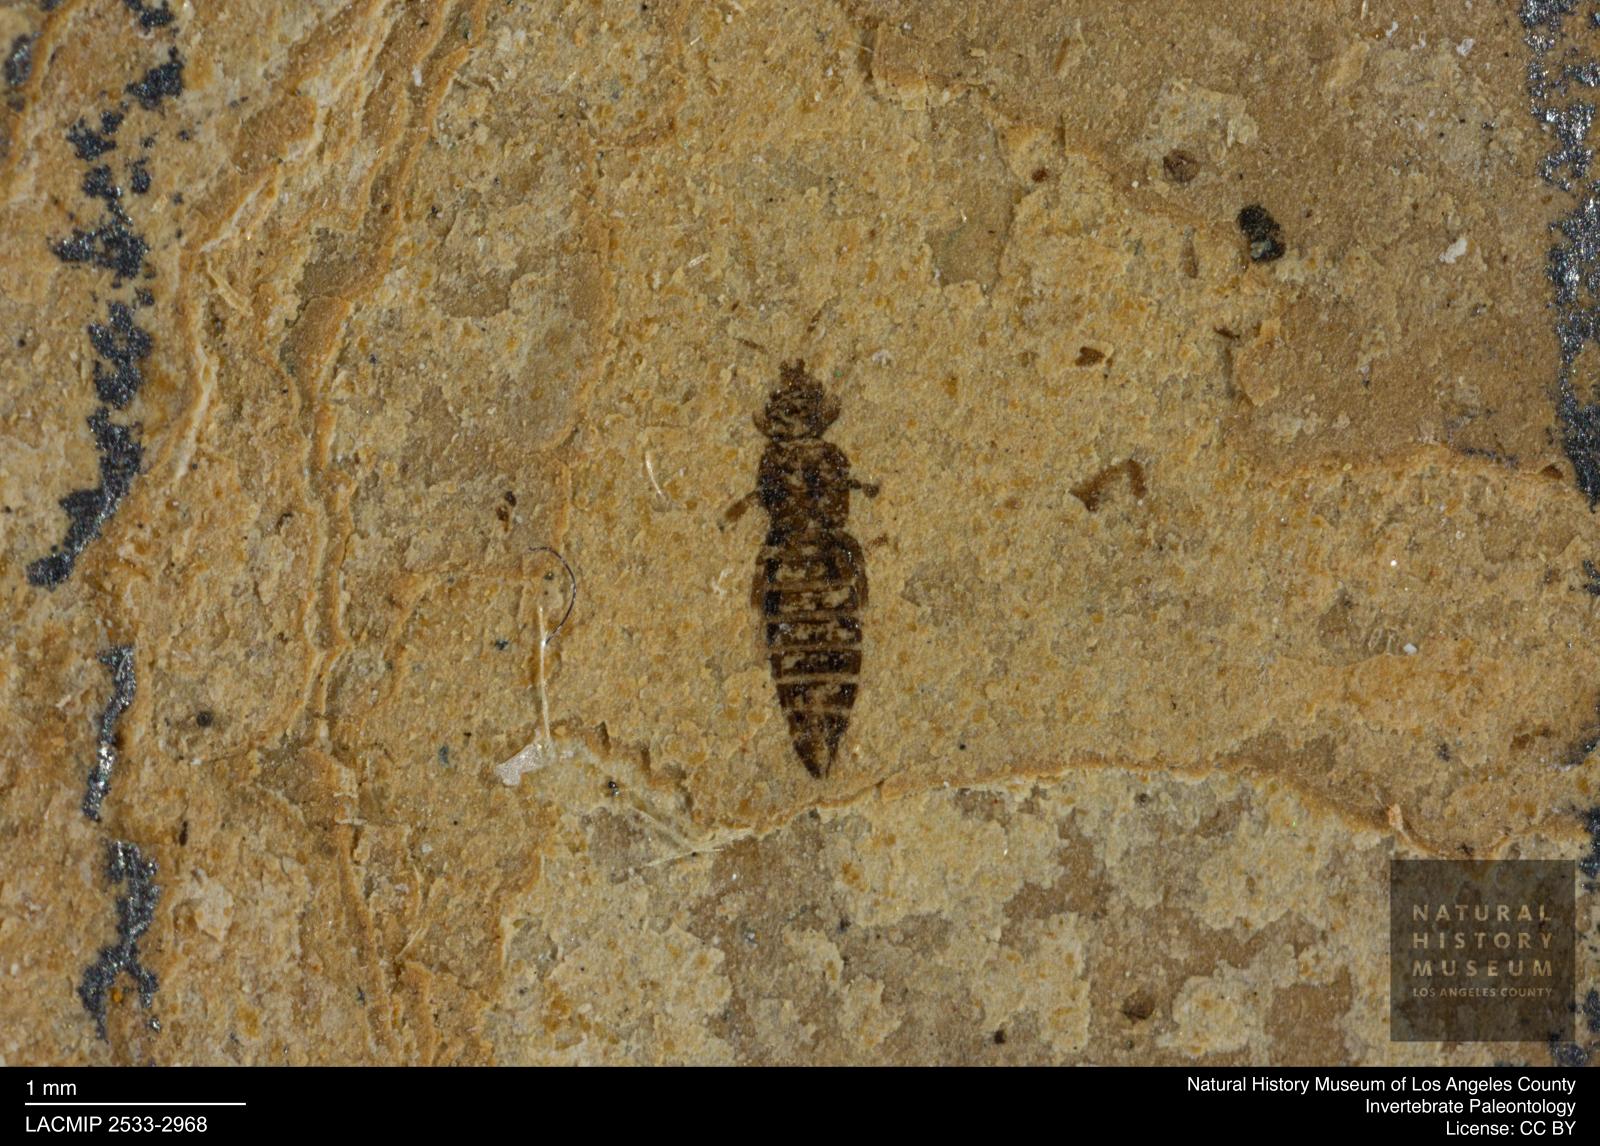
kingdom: Animalia
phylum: Arthropoda
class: Insecta
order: Thysanoptera
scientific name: Thysanoptera
